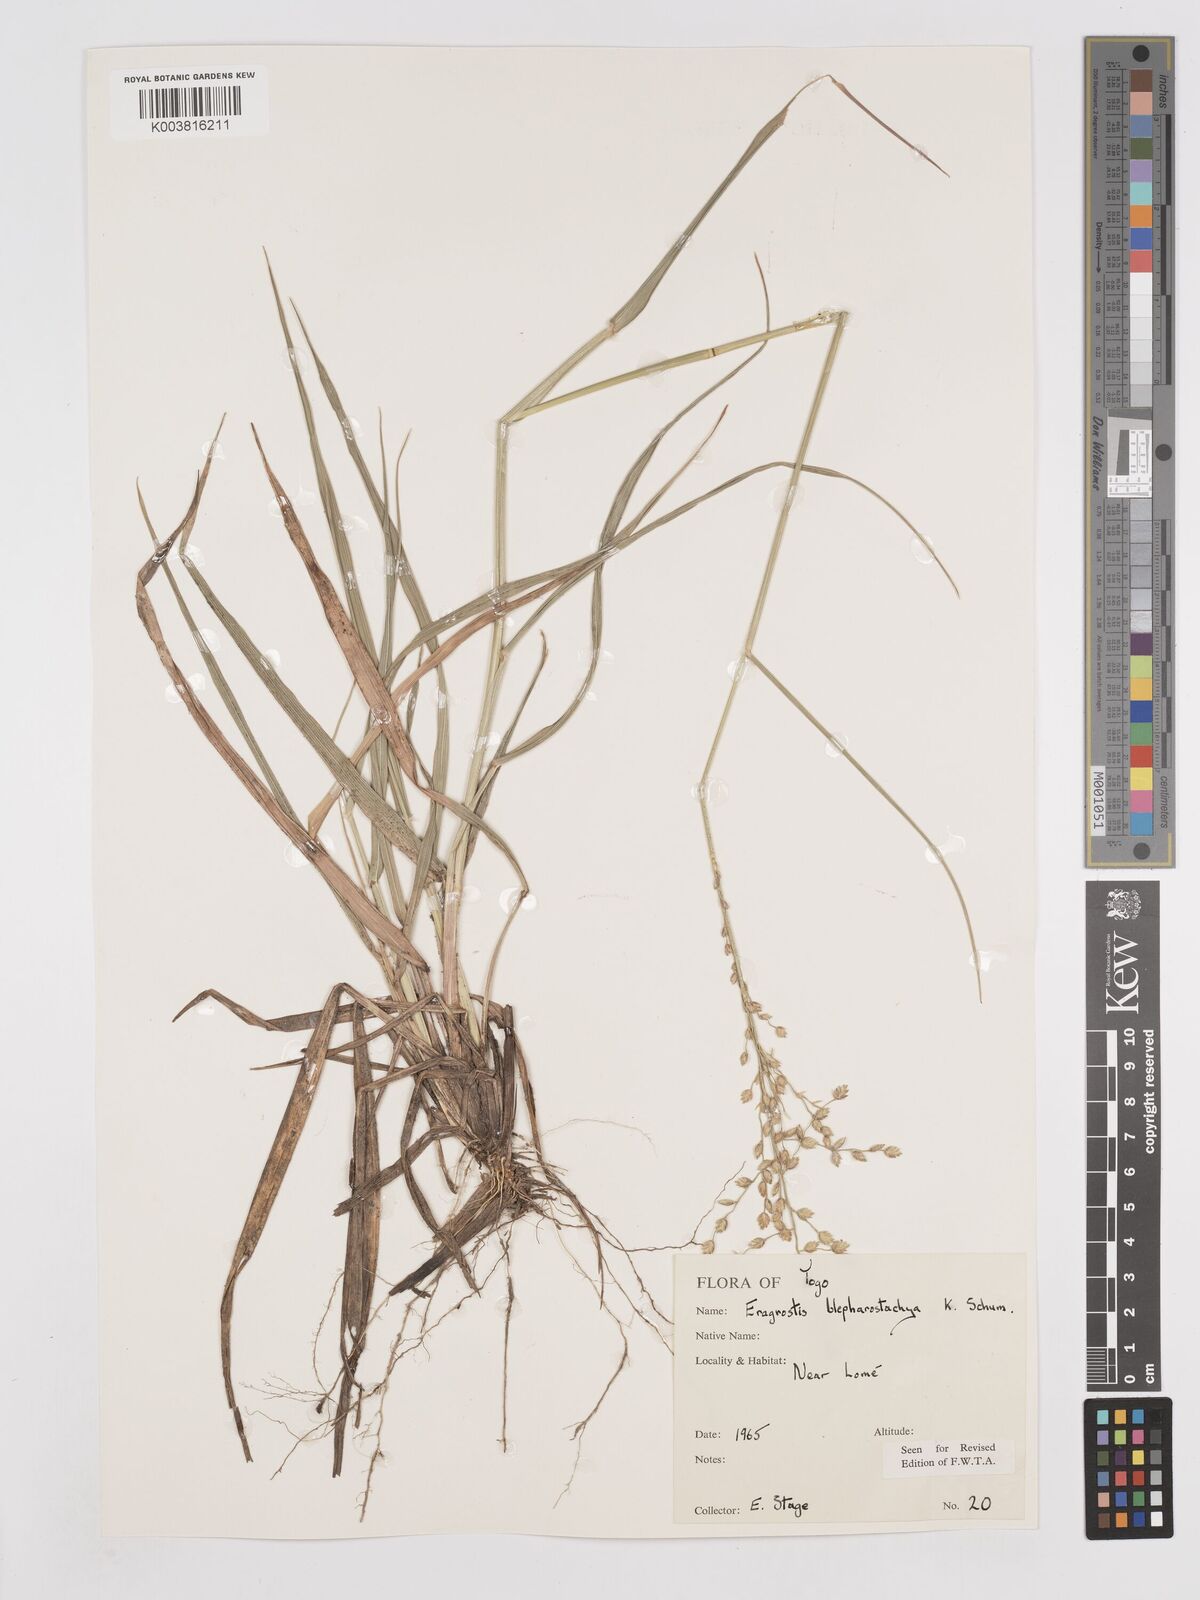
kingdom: Plantae
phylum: Tracheophyta
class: Liliopsida
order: Poales
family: Poaceae
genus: Eragrostis
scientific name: Eragrostis blepharostachya
